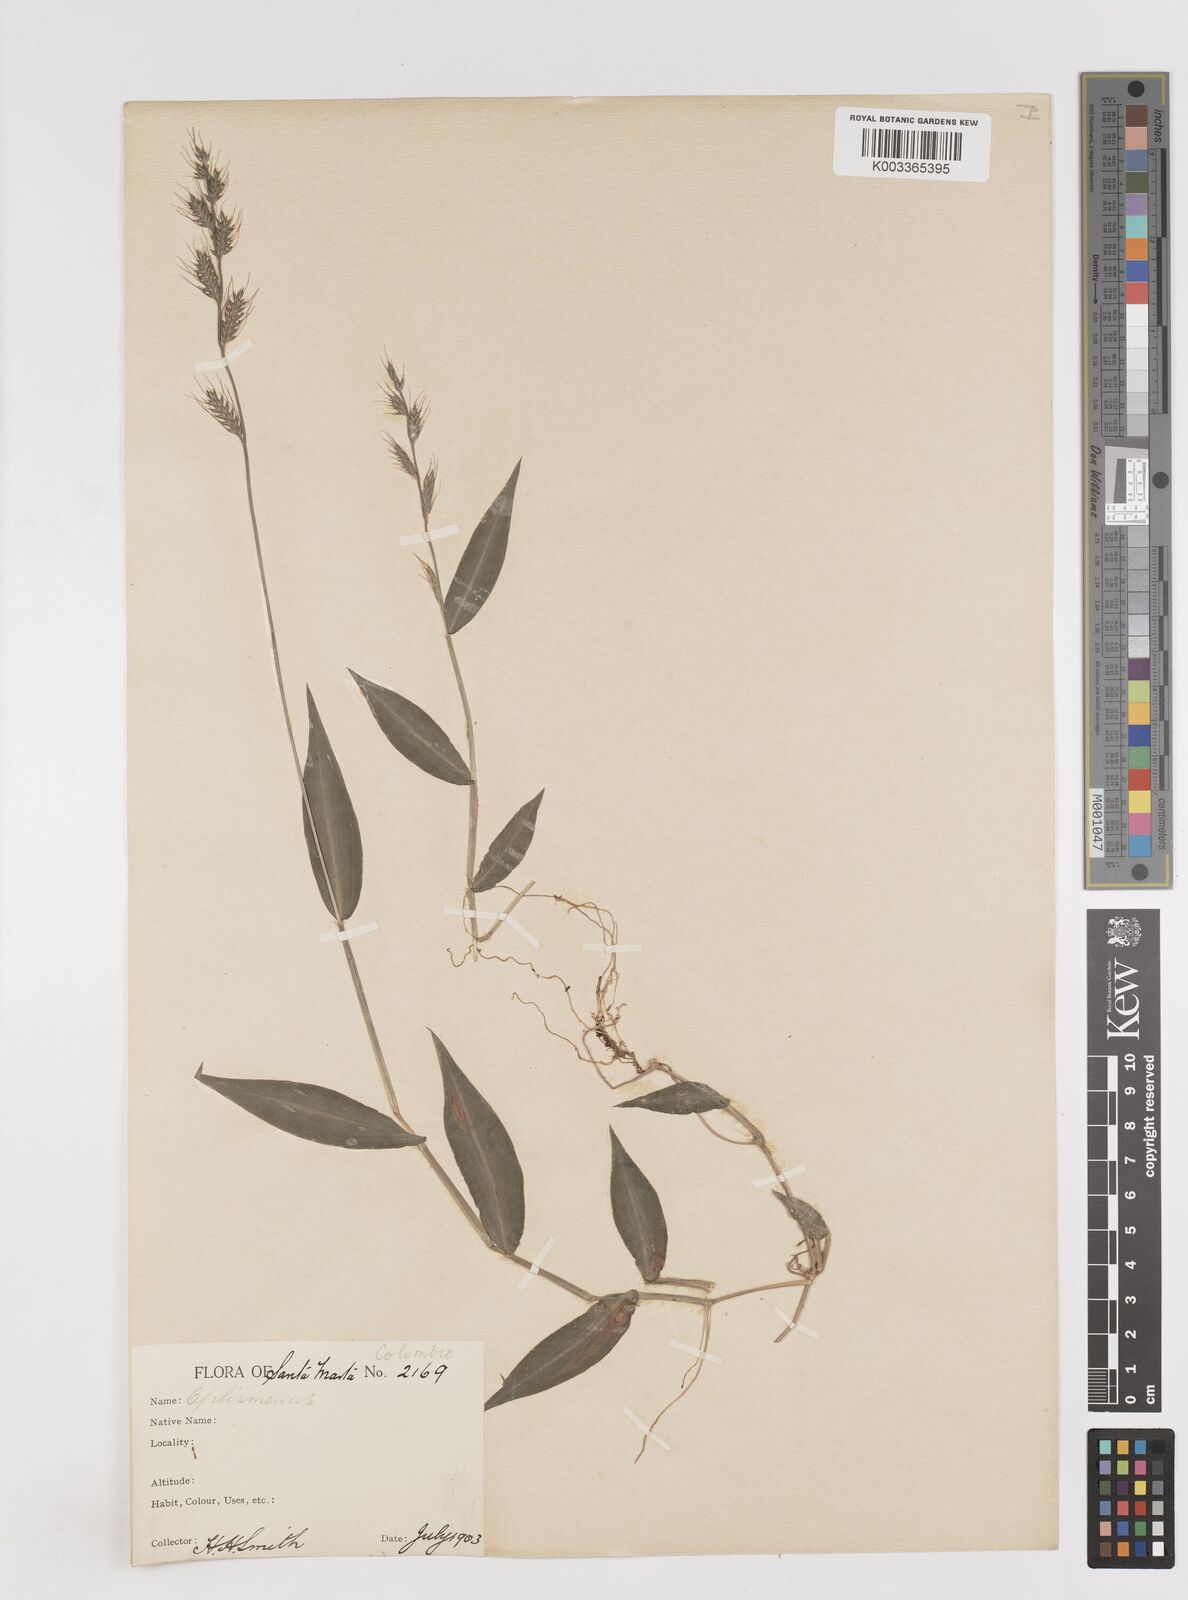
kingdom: Plantae
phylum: Tracheophyta
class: Liliopsida
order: Poales
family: Poaceae
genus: Oplismenus
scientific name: Oplismenus hirtellus
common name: Basketgrass
